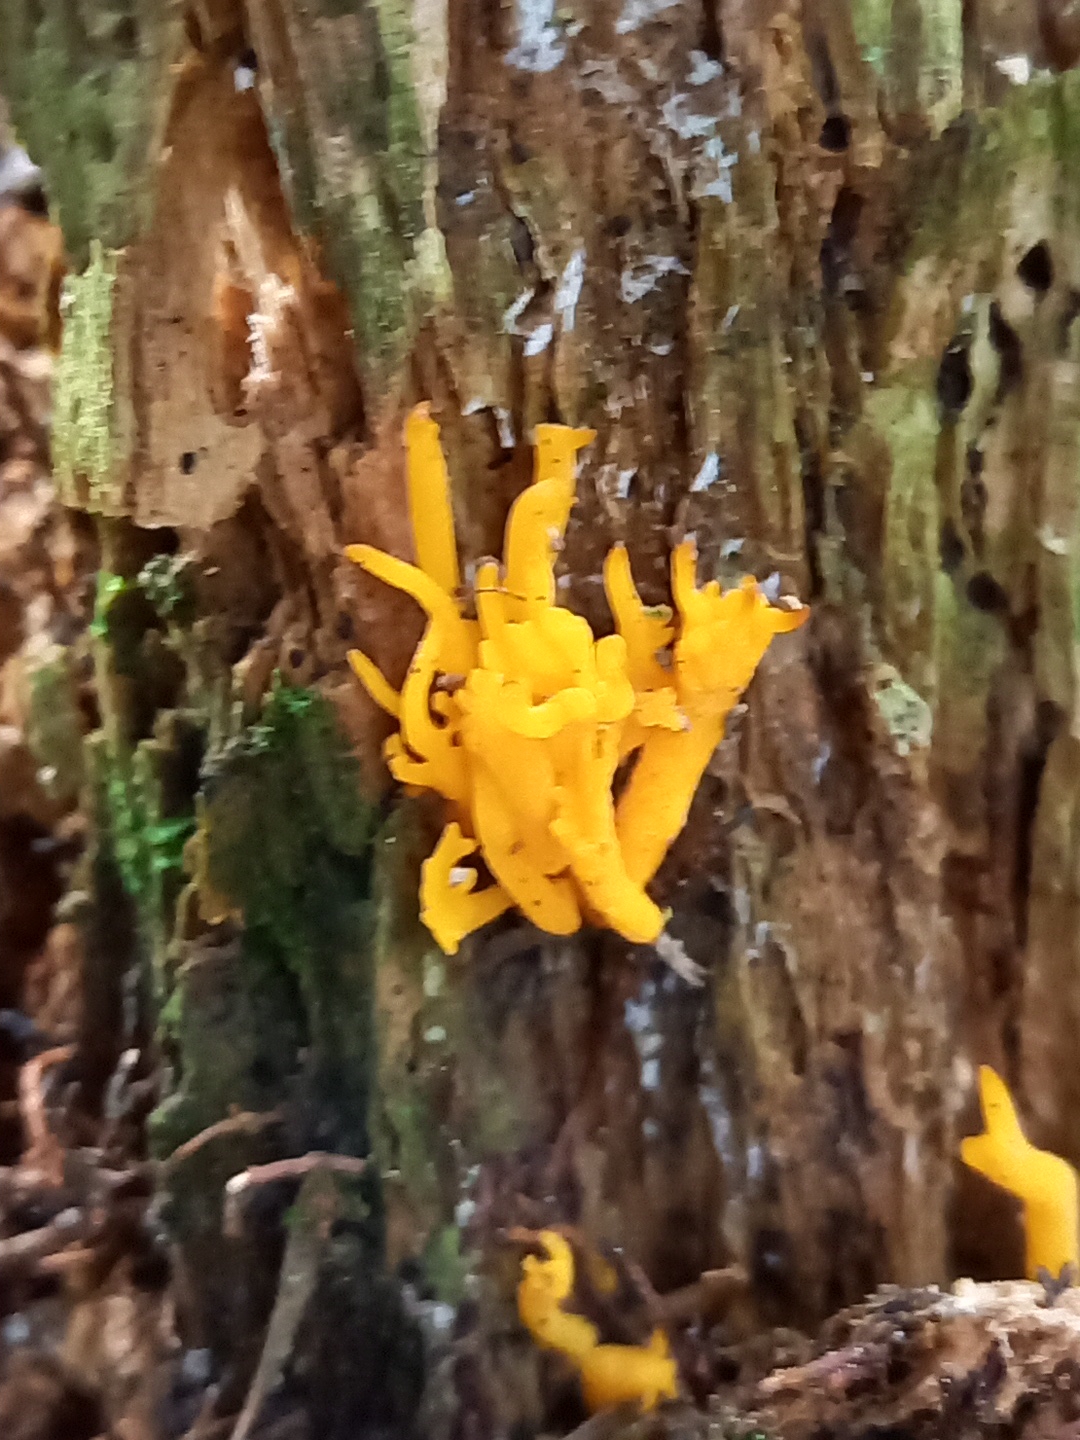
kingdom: Fungi
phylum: Basidiomycota
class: Dacrymycetes
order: Dacrymycetales
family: Dacrymycetaceae
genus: Calocera
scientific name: Calocera viscosa
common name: almindelig guldgaffel
